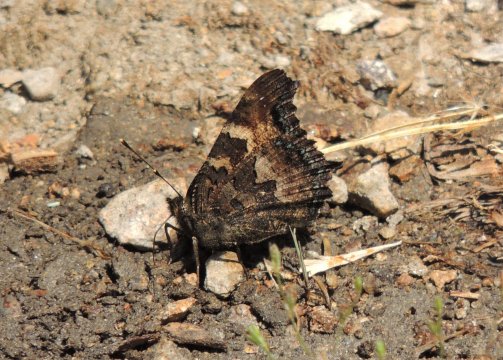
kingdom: Animalia
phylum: Arthropoda
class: Insecta
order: Lepidoptera
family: Nymphalidae
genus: Nymphalis
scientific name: Nymphalis californica
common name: California Tortoiseshell
